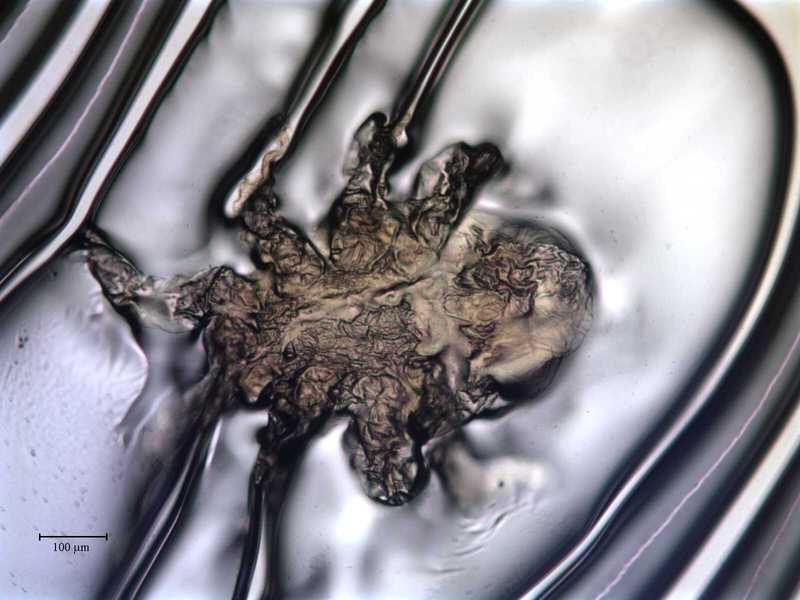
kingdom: Animalia
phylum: Arthropoda
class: Arachnida
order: Mesostigmata
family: Rhinonyssidae
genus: Sternostoma
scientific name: Sternostoma technaui
